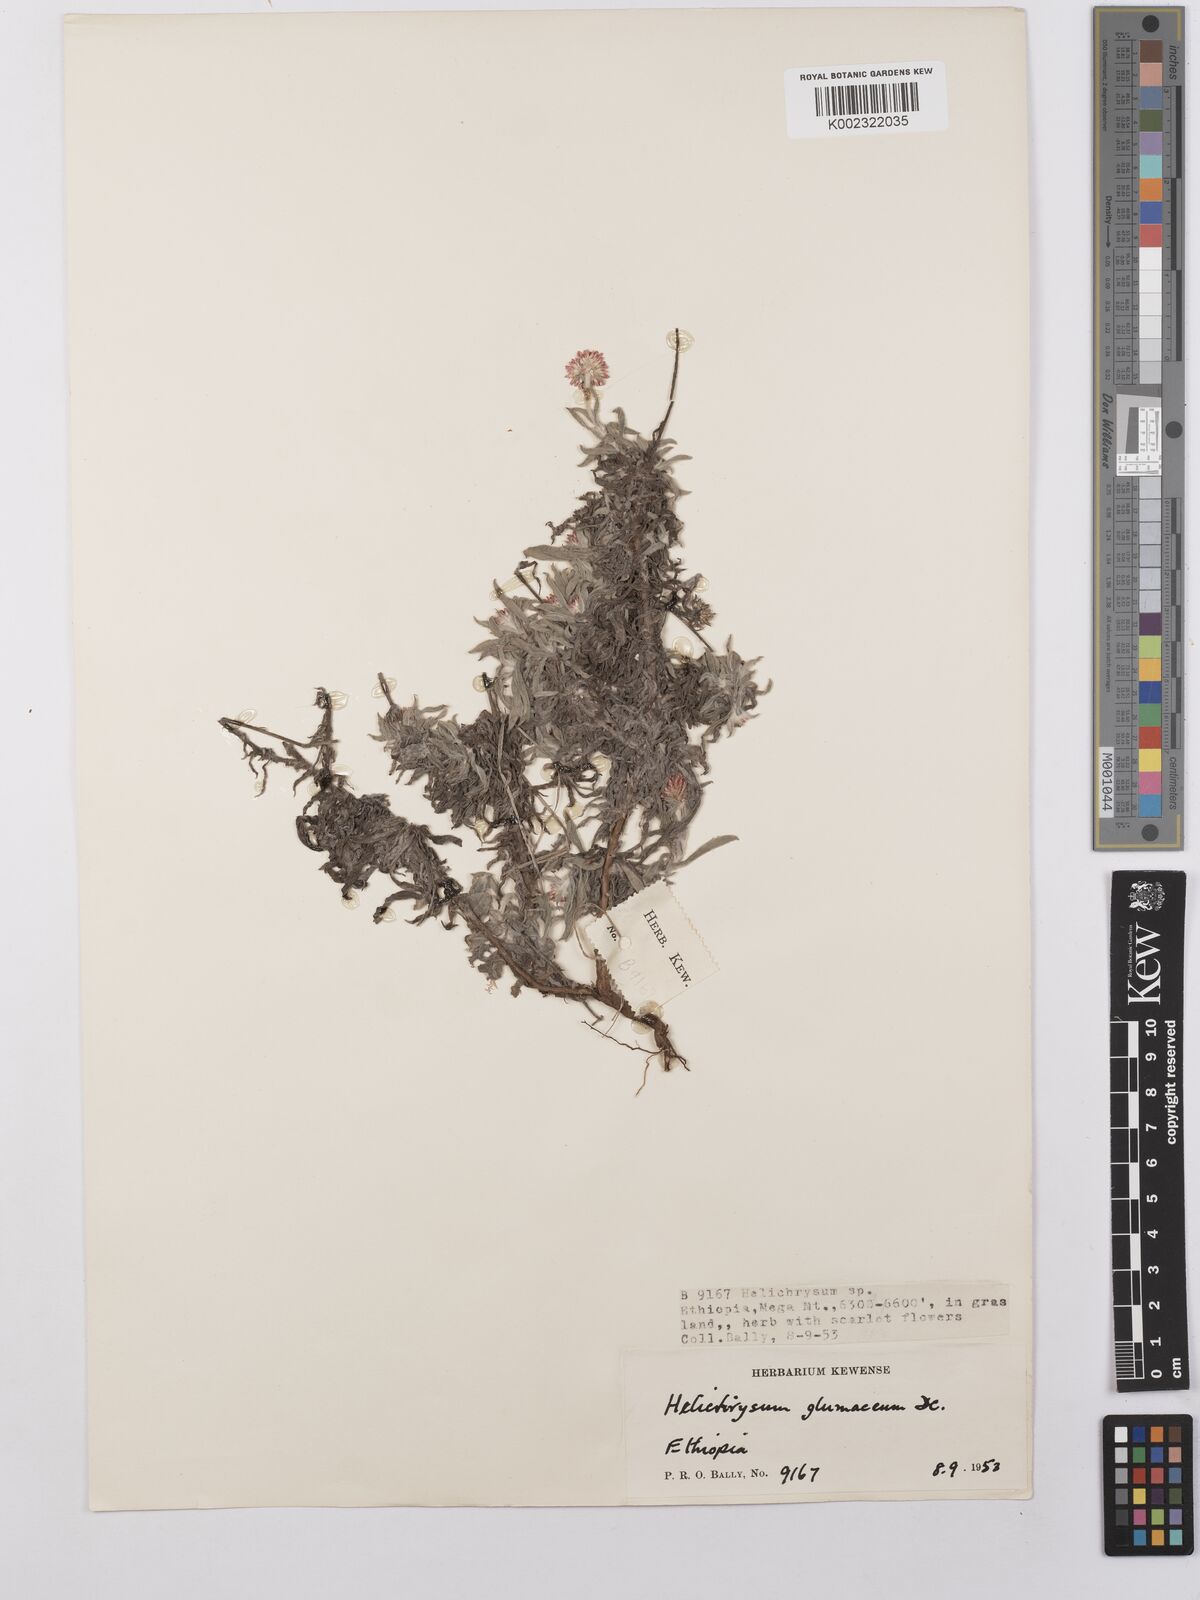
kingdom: Plantae
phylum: Tracheophyta
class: Magnoliopsida
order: Asterales
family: Asteraceae
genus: Helichrysum
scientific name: Helichrysum glumaceum
